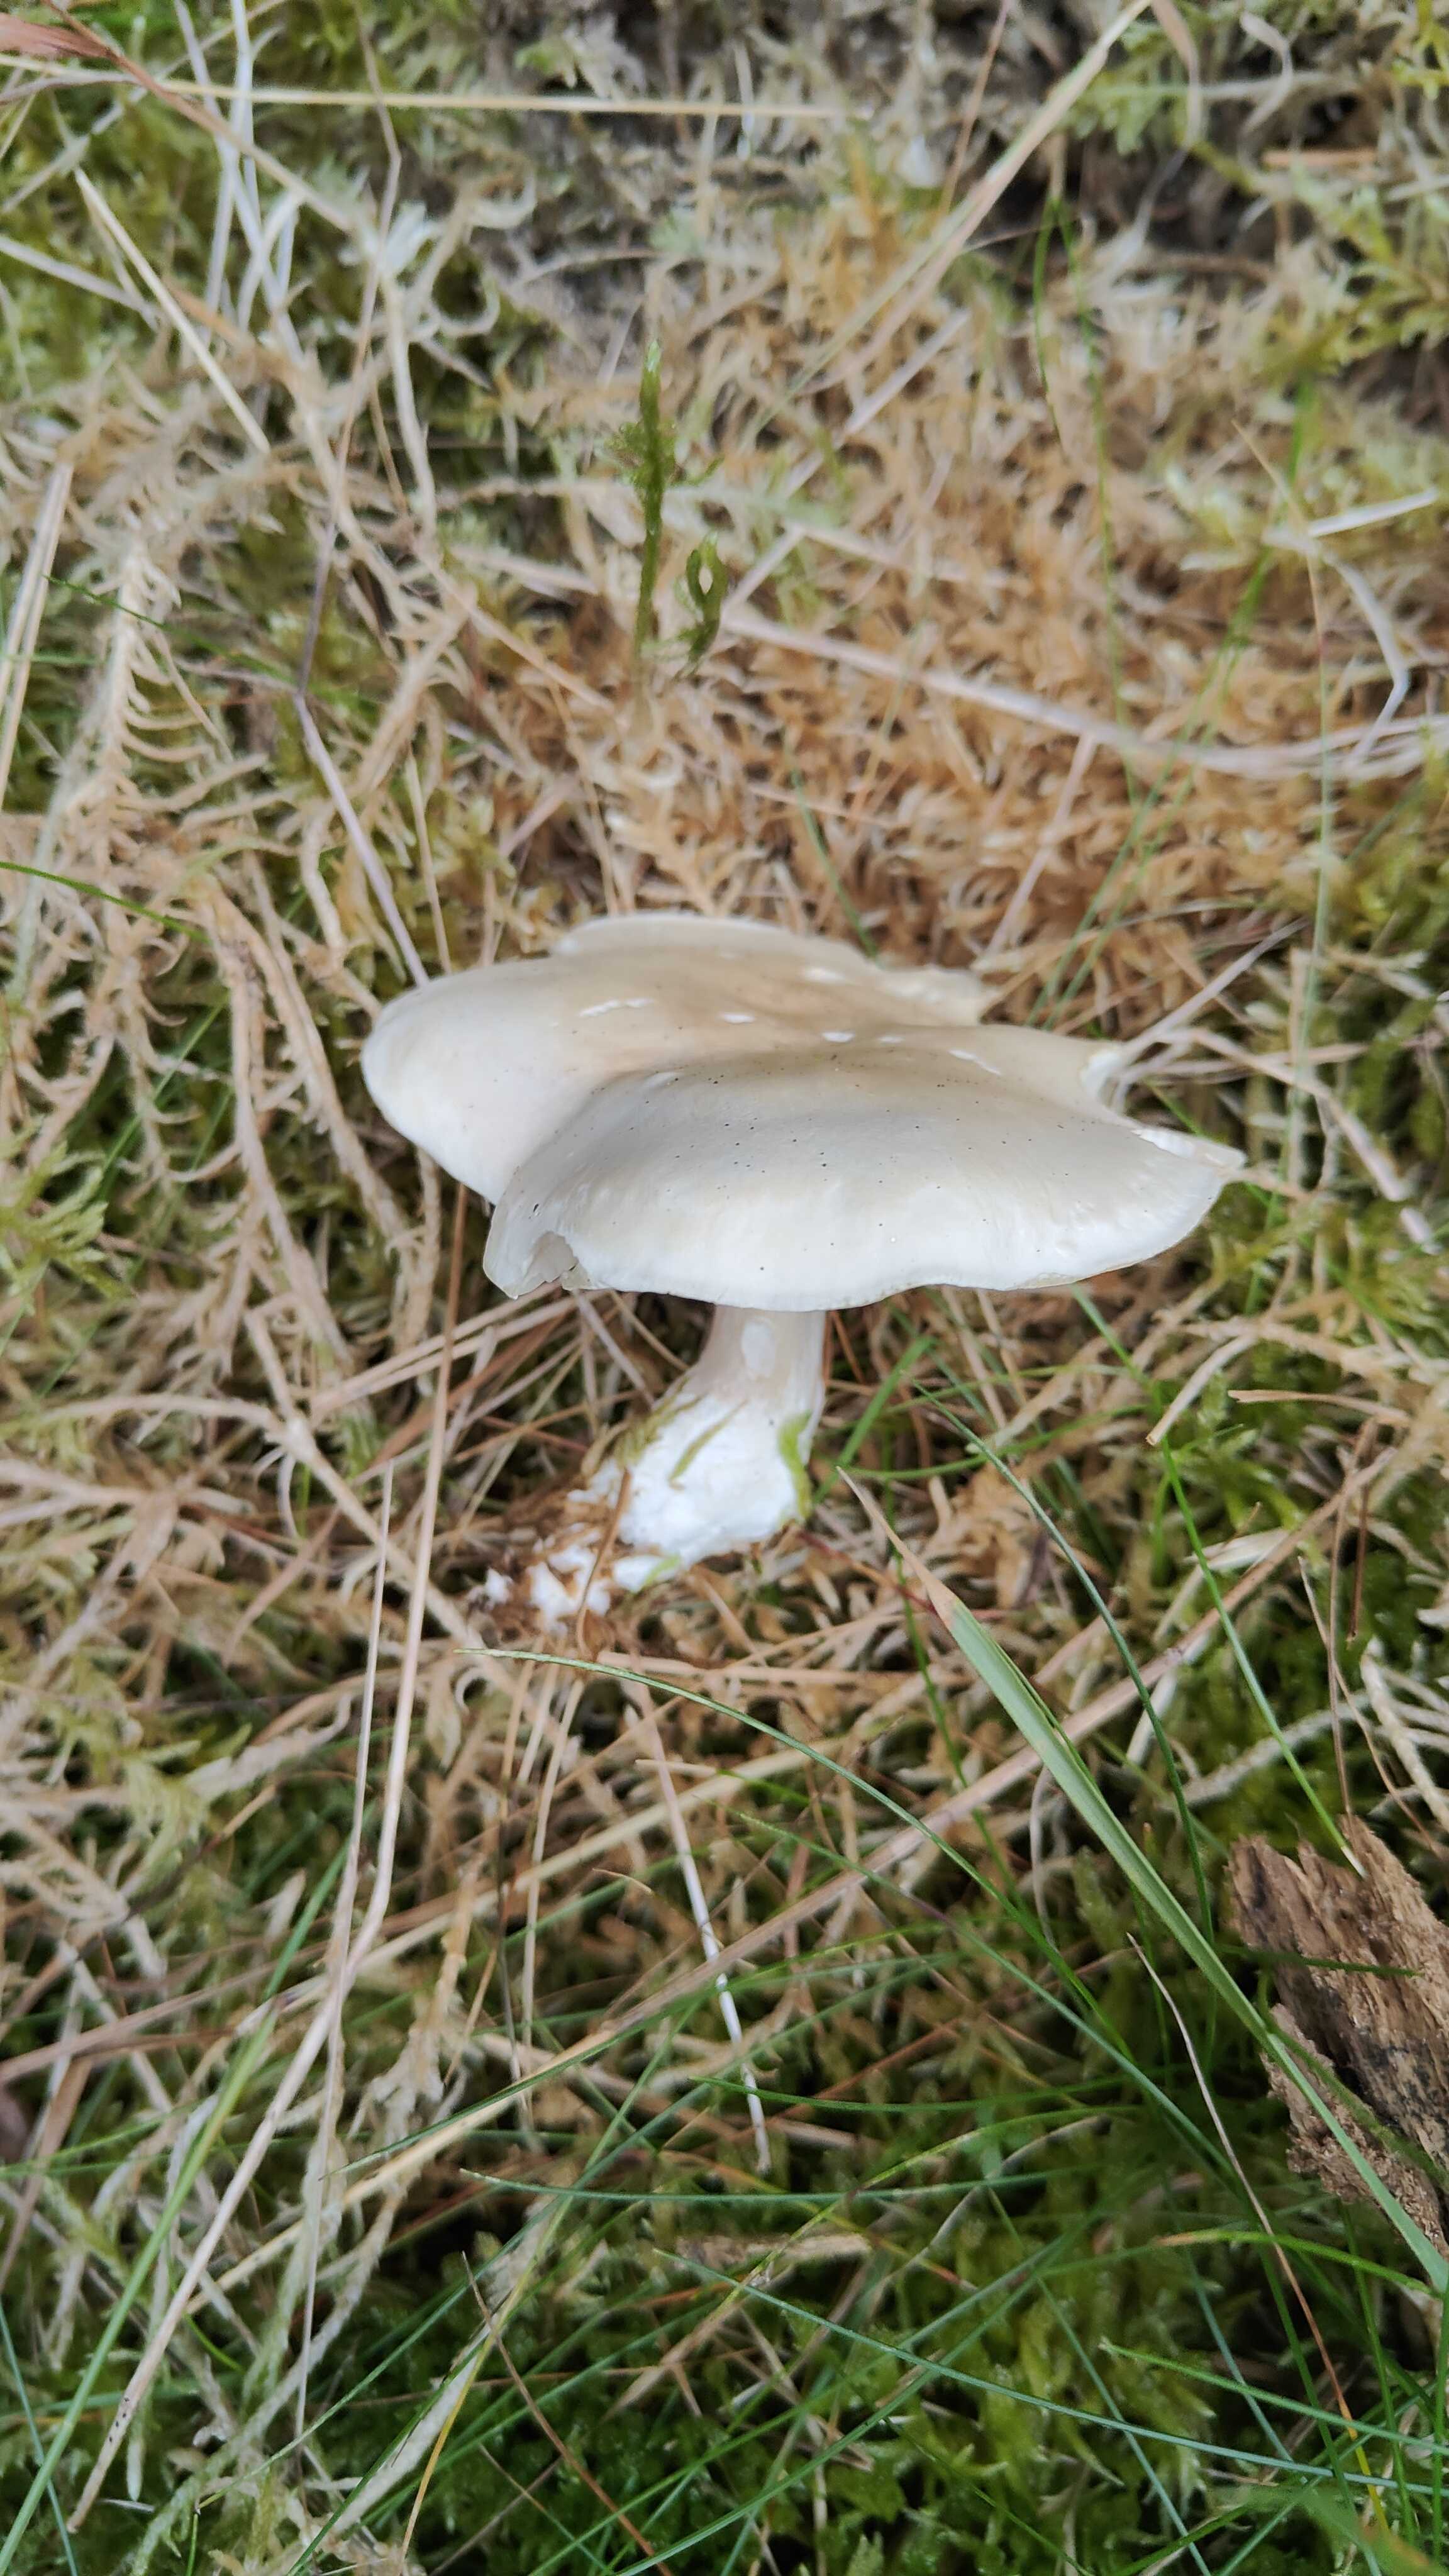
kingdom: Fungi
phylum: Basidiomycota
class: Agaricomycetes
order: Agaricales
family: Entolomataceae
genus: Clitopilus
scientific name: Clitopilus prunulus
